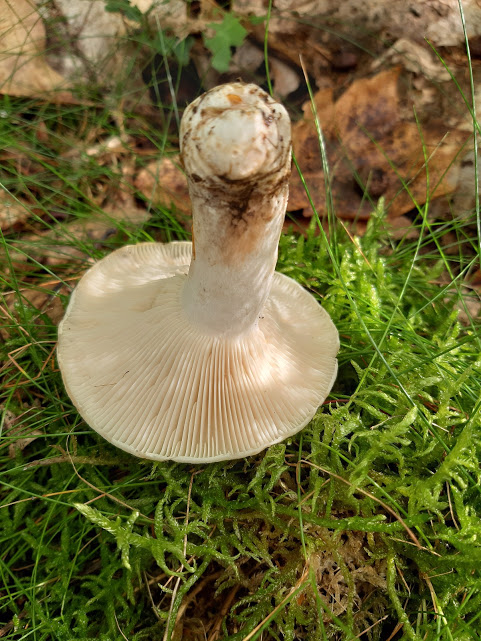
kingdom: Fungi
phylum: Basidiomycota
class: Agaricomycetes
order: Russulales
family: Russulaceae
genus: Russula
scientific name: Russula
